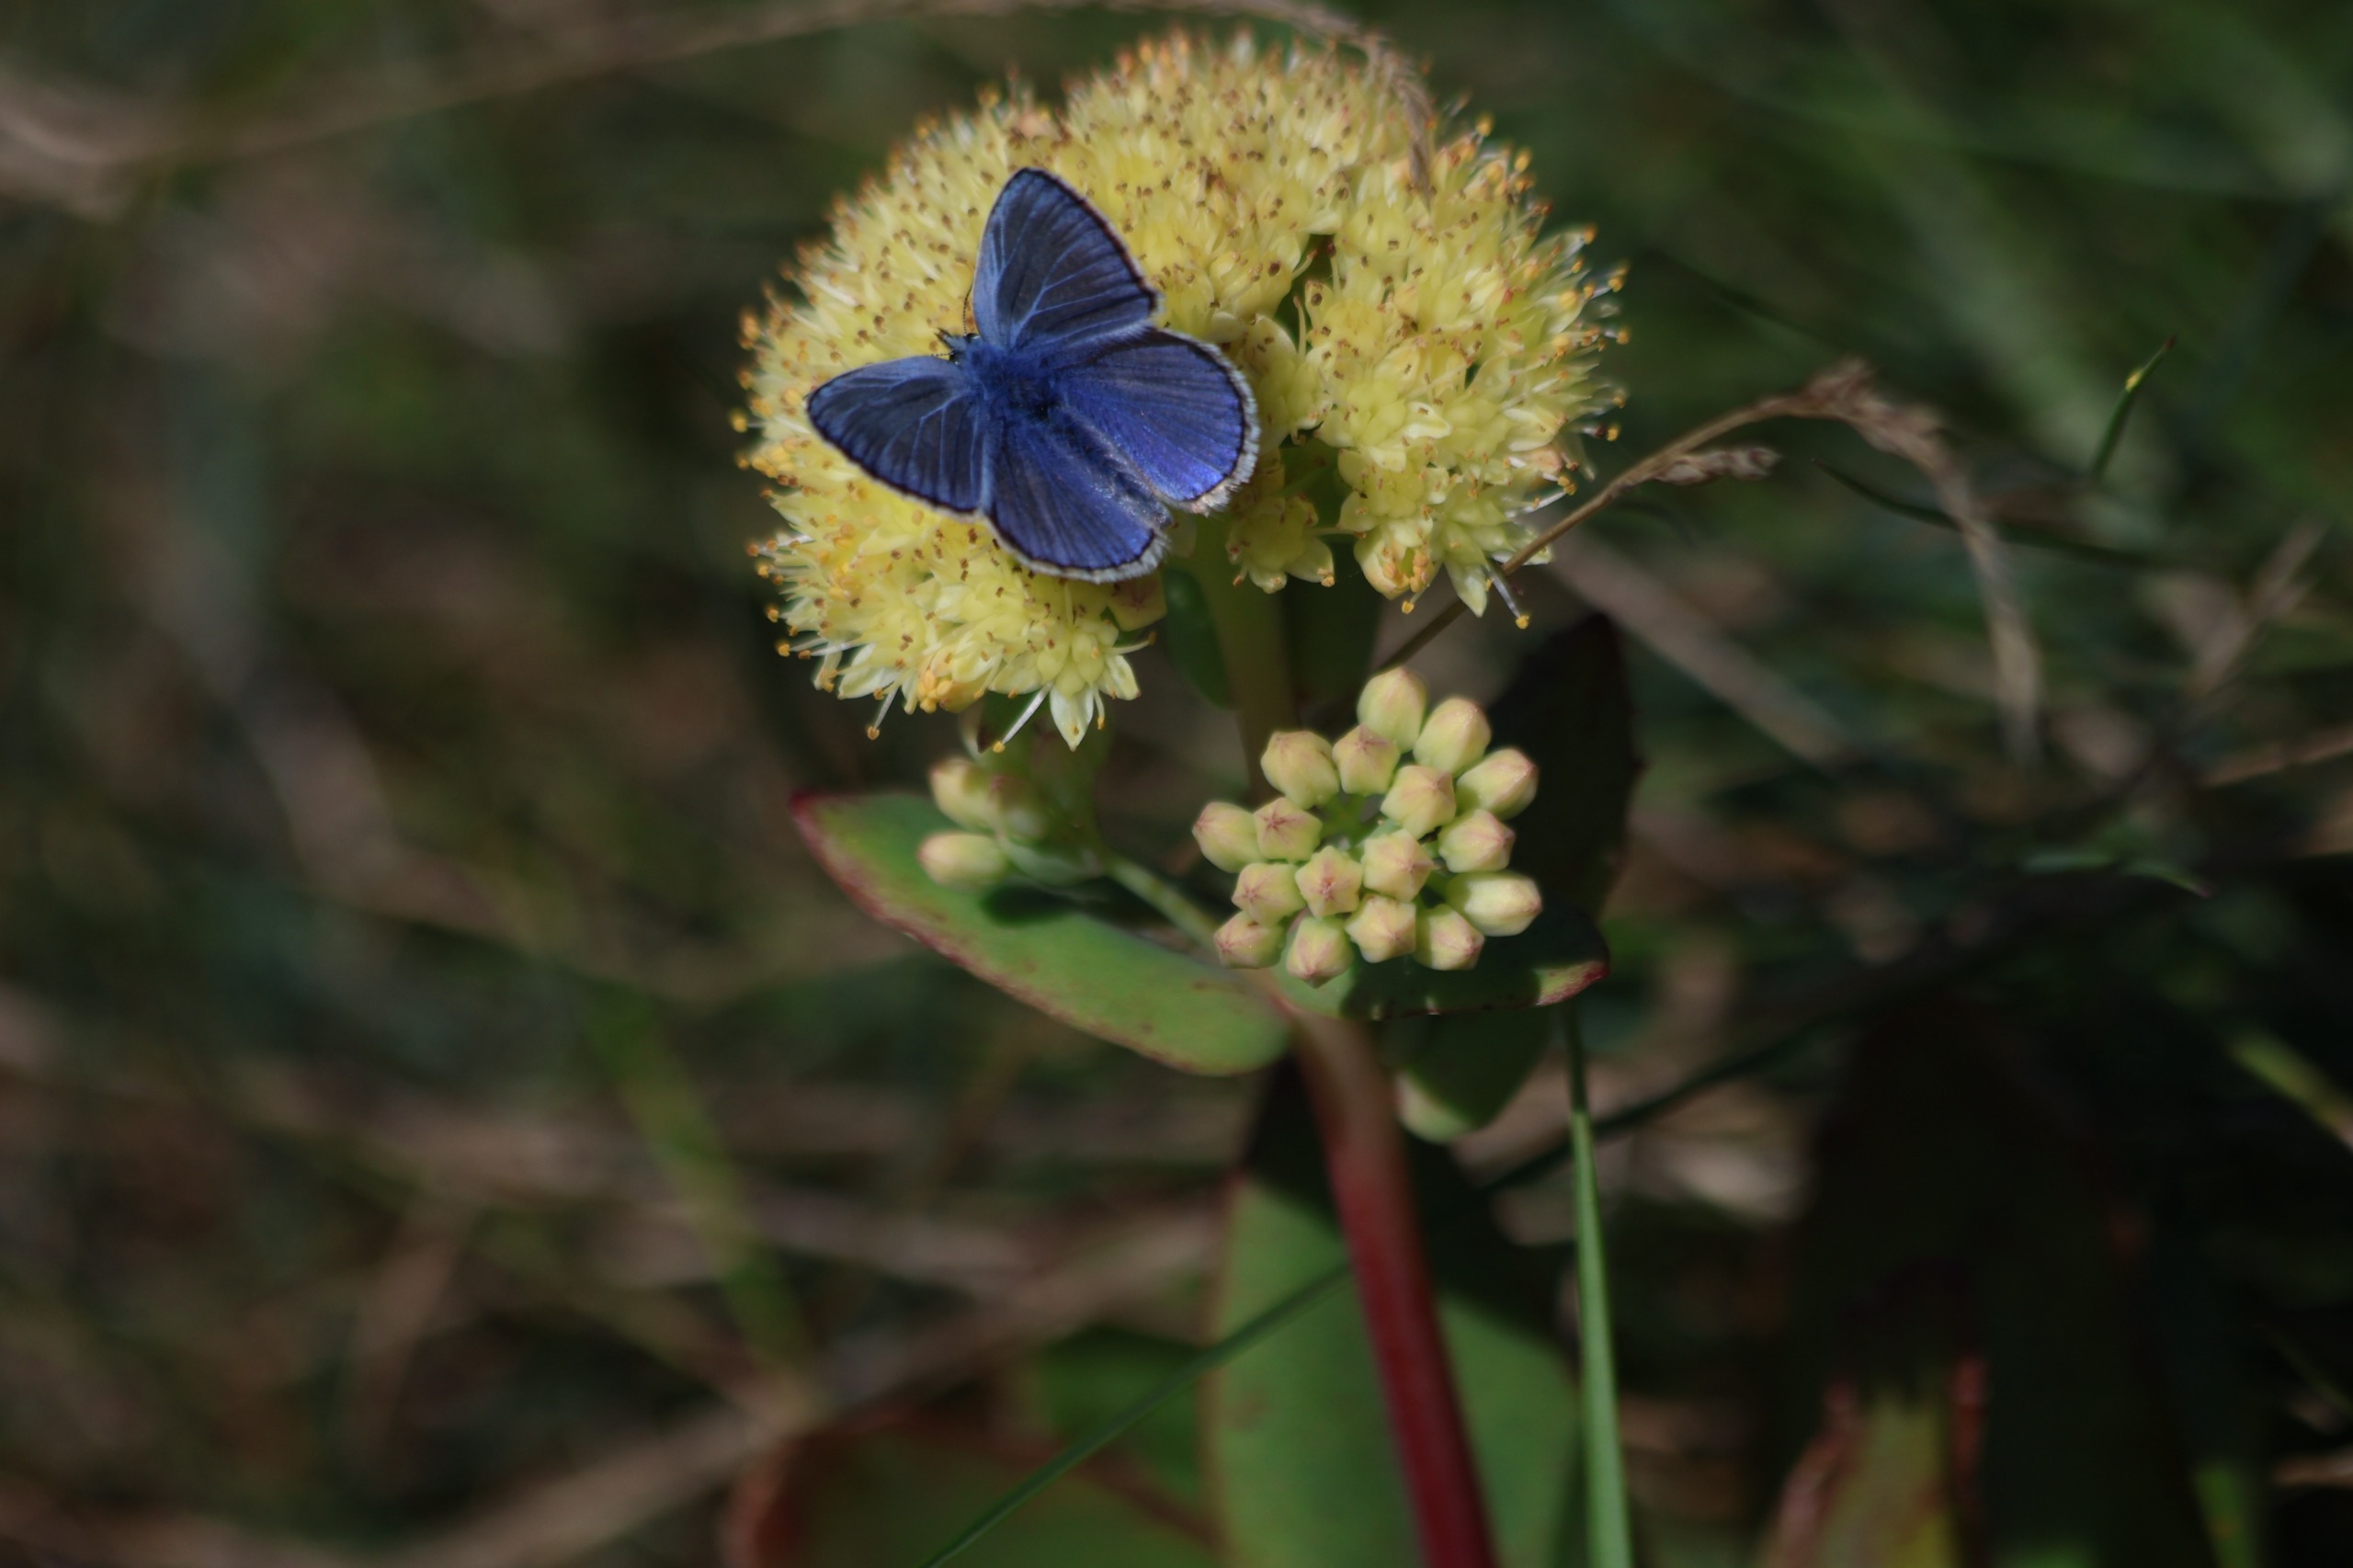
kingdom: Animalia
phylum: Arthropoda
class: Insecta
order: Lepidoptera
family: Lycaenidae
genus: Polyommatus
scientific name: Polyommatus icarus
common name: Almindelig blåfugl
